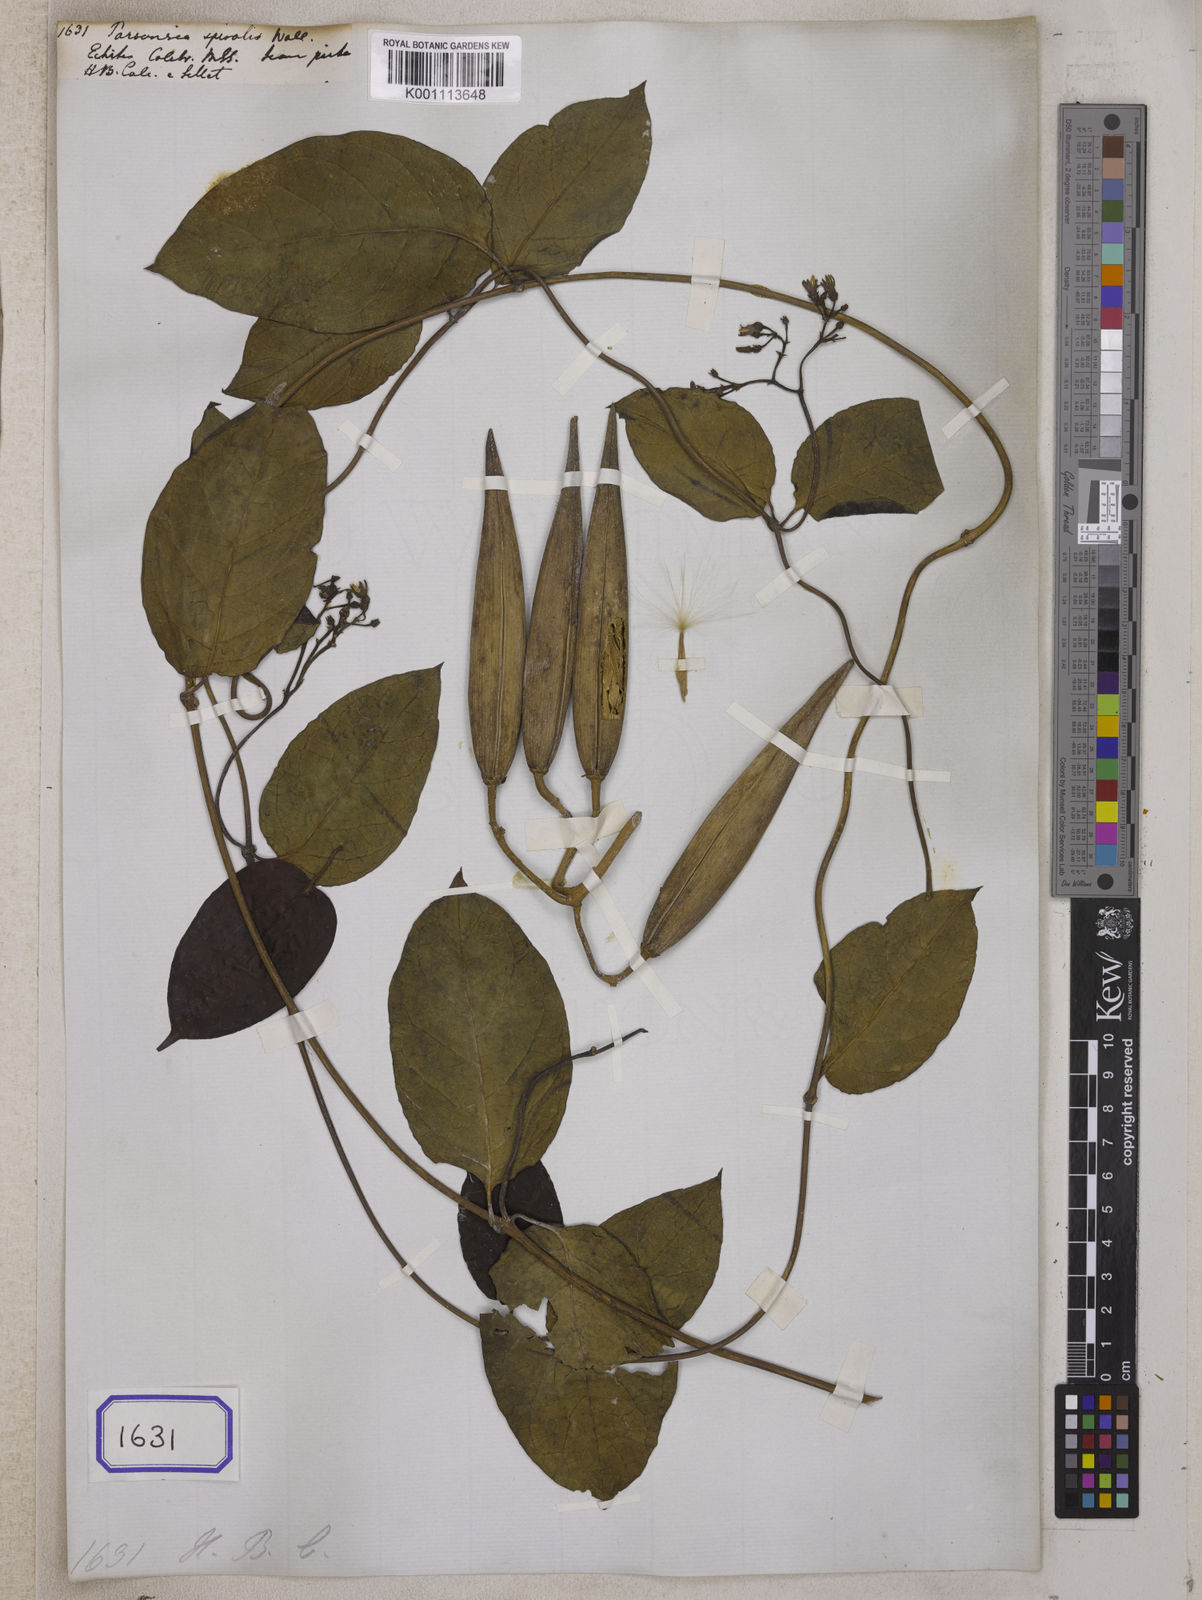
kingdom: Plantae
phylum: Tracheophyta
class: Magnoliopsida
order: Gentianales
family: Apocynaceae
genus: Parsonsia
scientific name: Parsonsia
